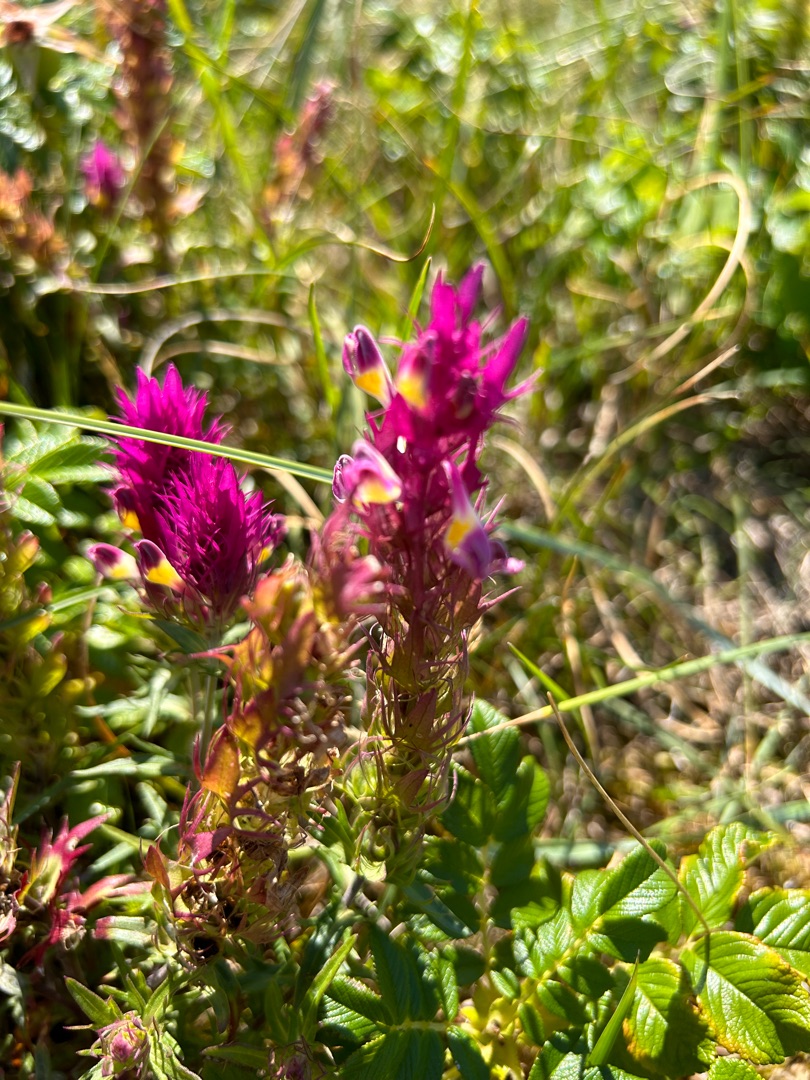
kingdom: Plantae
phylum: Tracheophyta
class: Magnoliopsida
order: Lamiales
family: Orobanchaceae
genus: Melampyrum
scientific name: Melampyrum arvense
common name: Ager-kohvede
